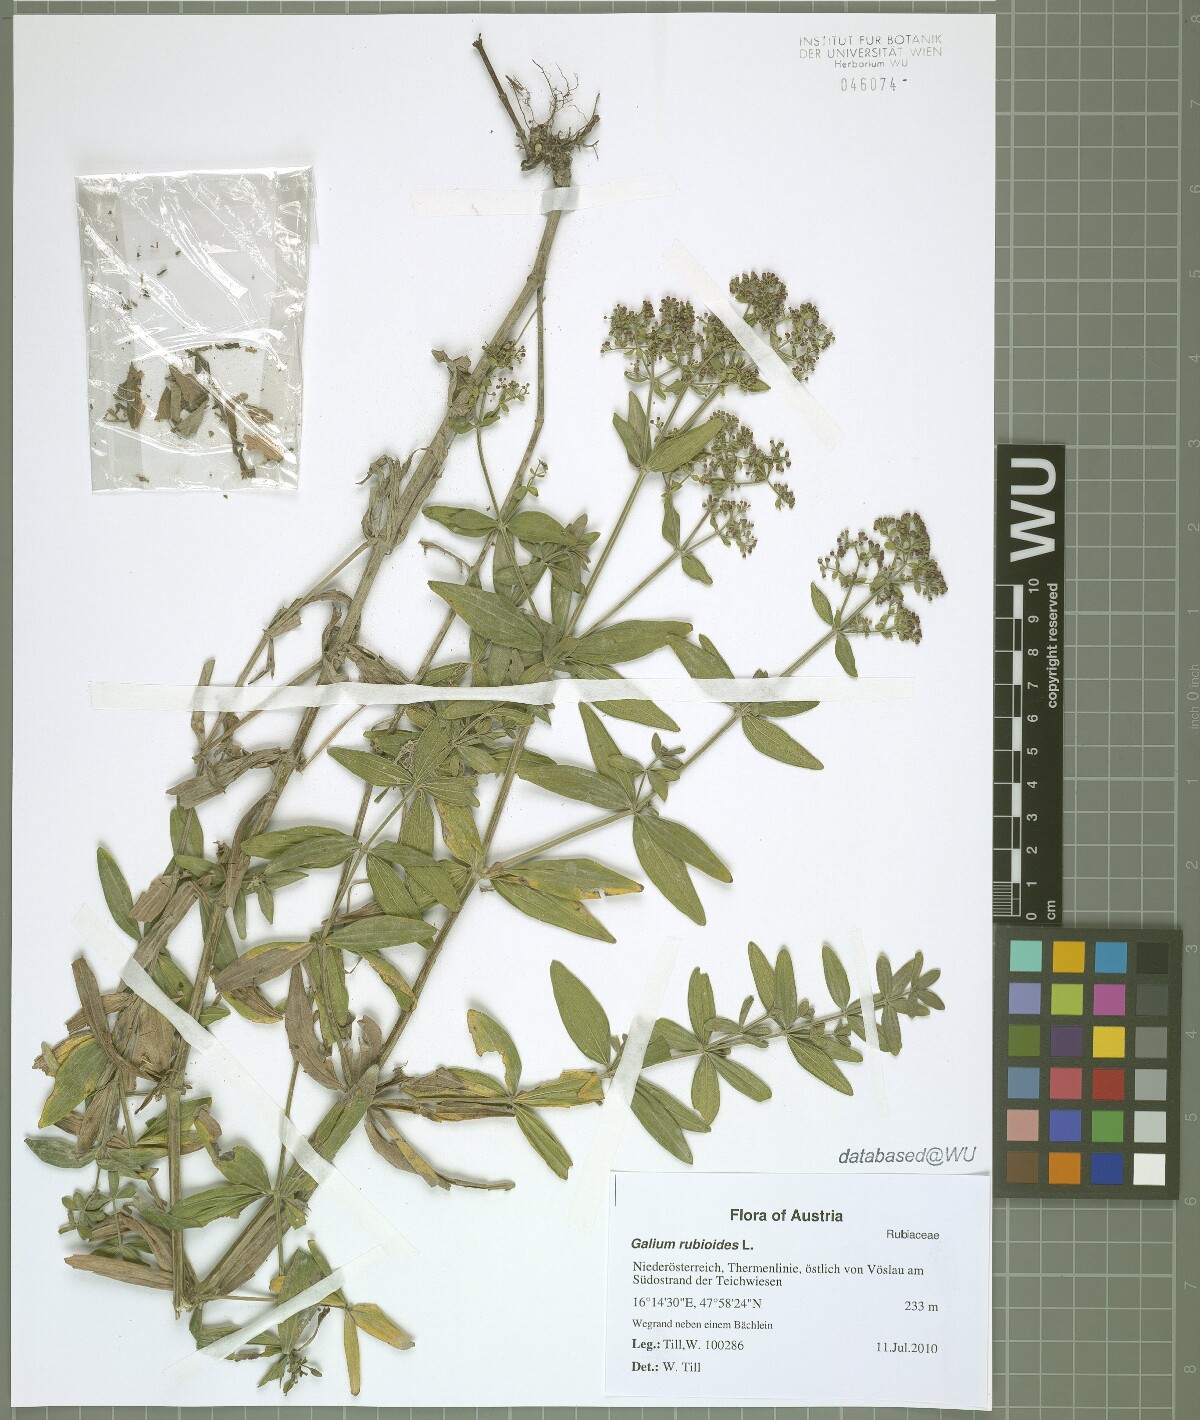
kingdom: Plantae
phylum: Tracheophyta
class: Magnoliopsida
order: Gentianales
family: Rubiaceae
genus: Galium
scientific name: Galium rubioides
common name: European bedstraw
